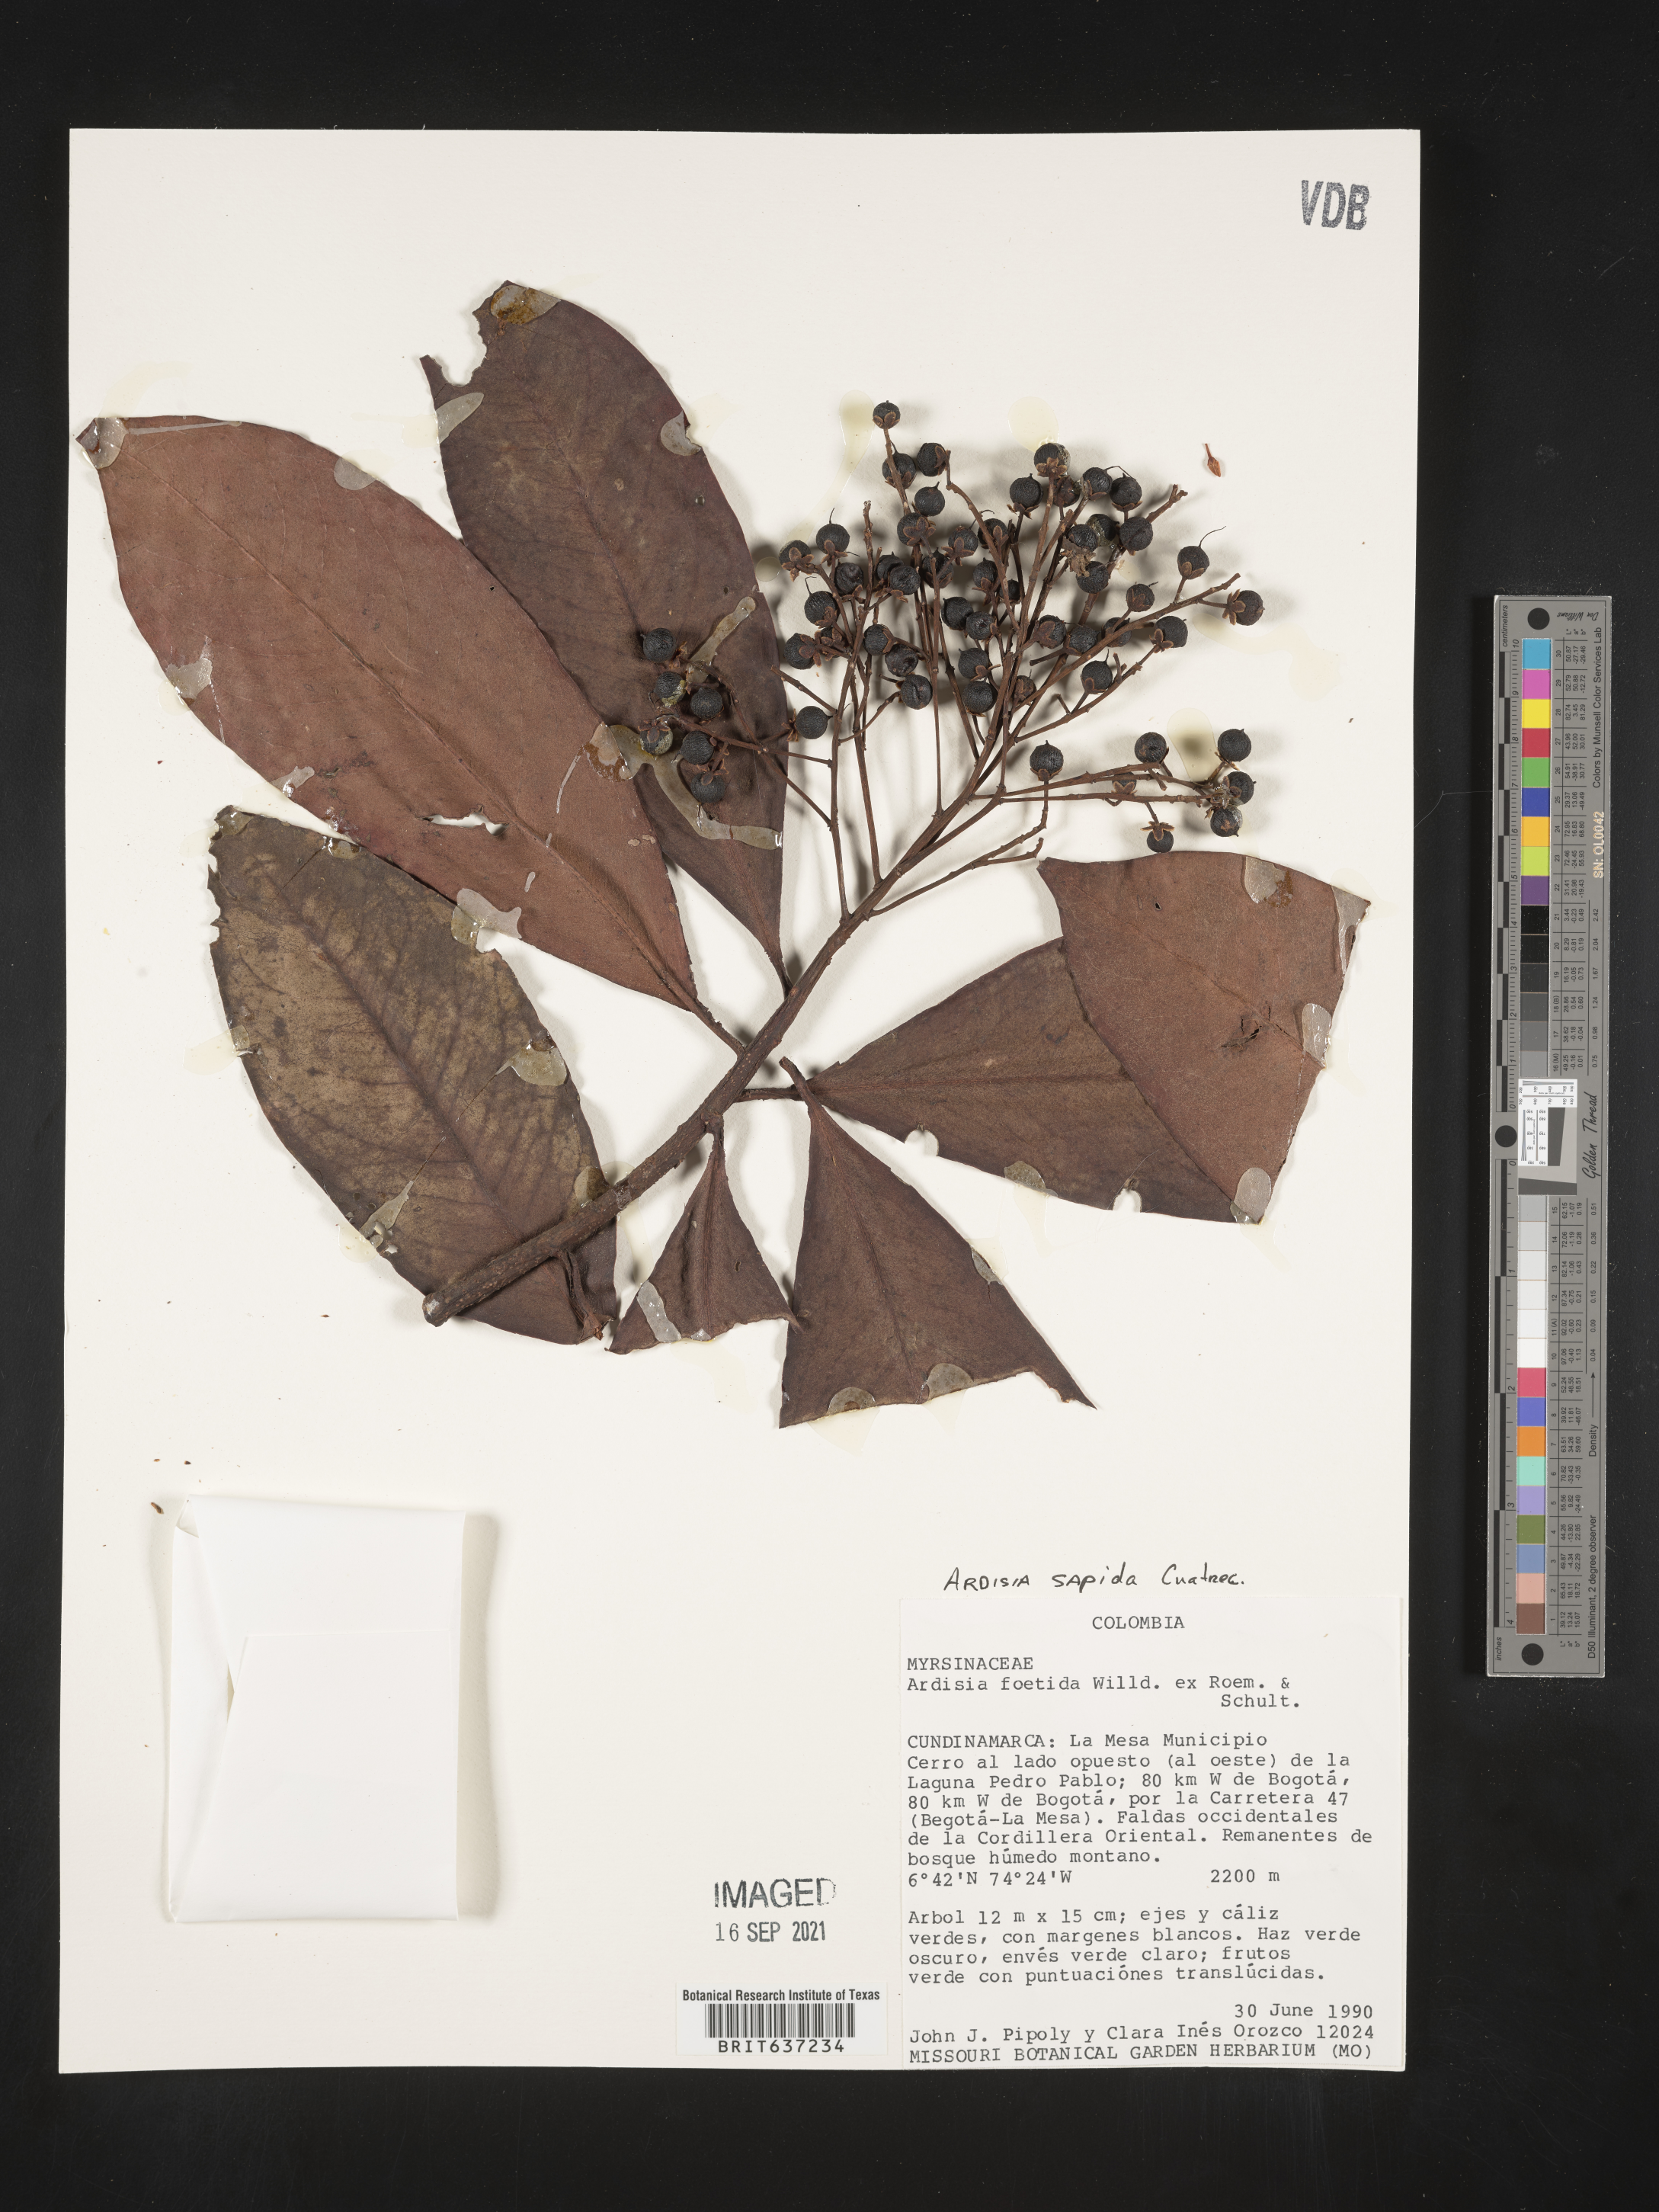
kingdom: Plantae
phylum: Tracheophyta
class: Magnoliopsida
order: Ericales
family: Primulaceae
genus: Ardisia
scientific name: Ardisia
